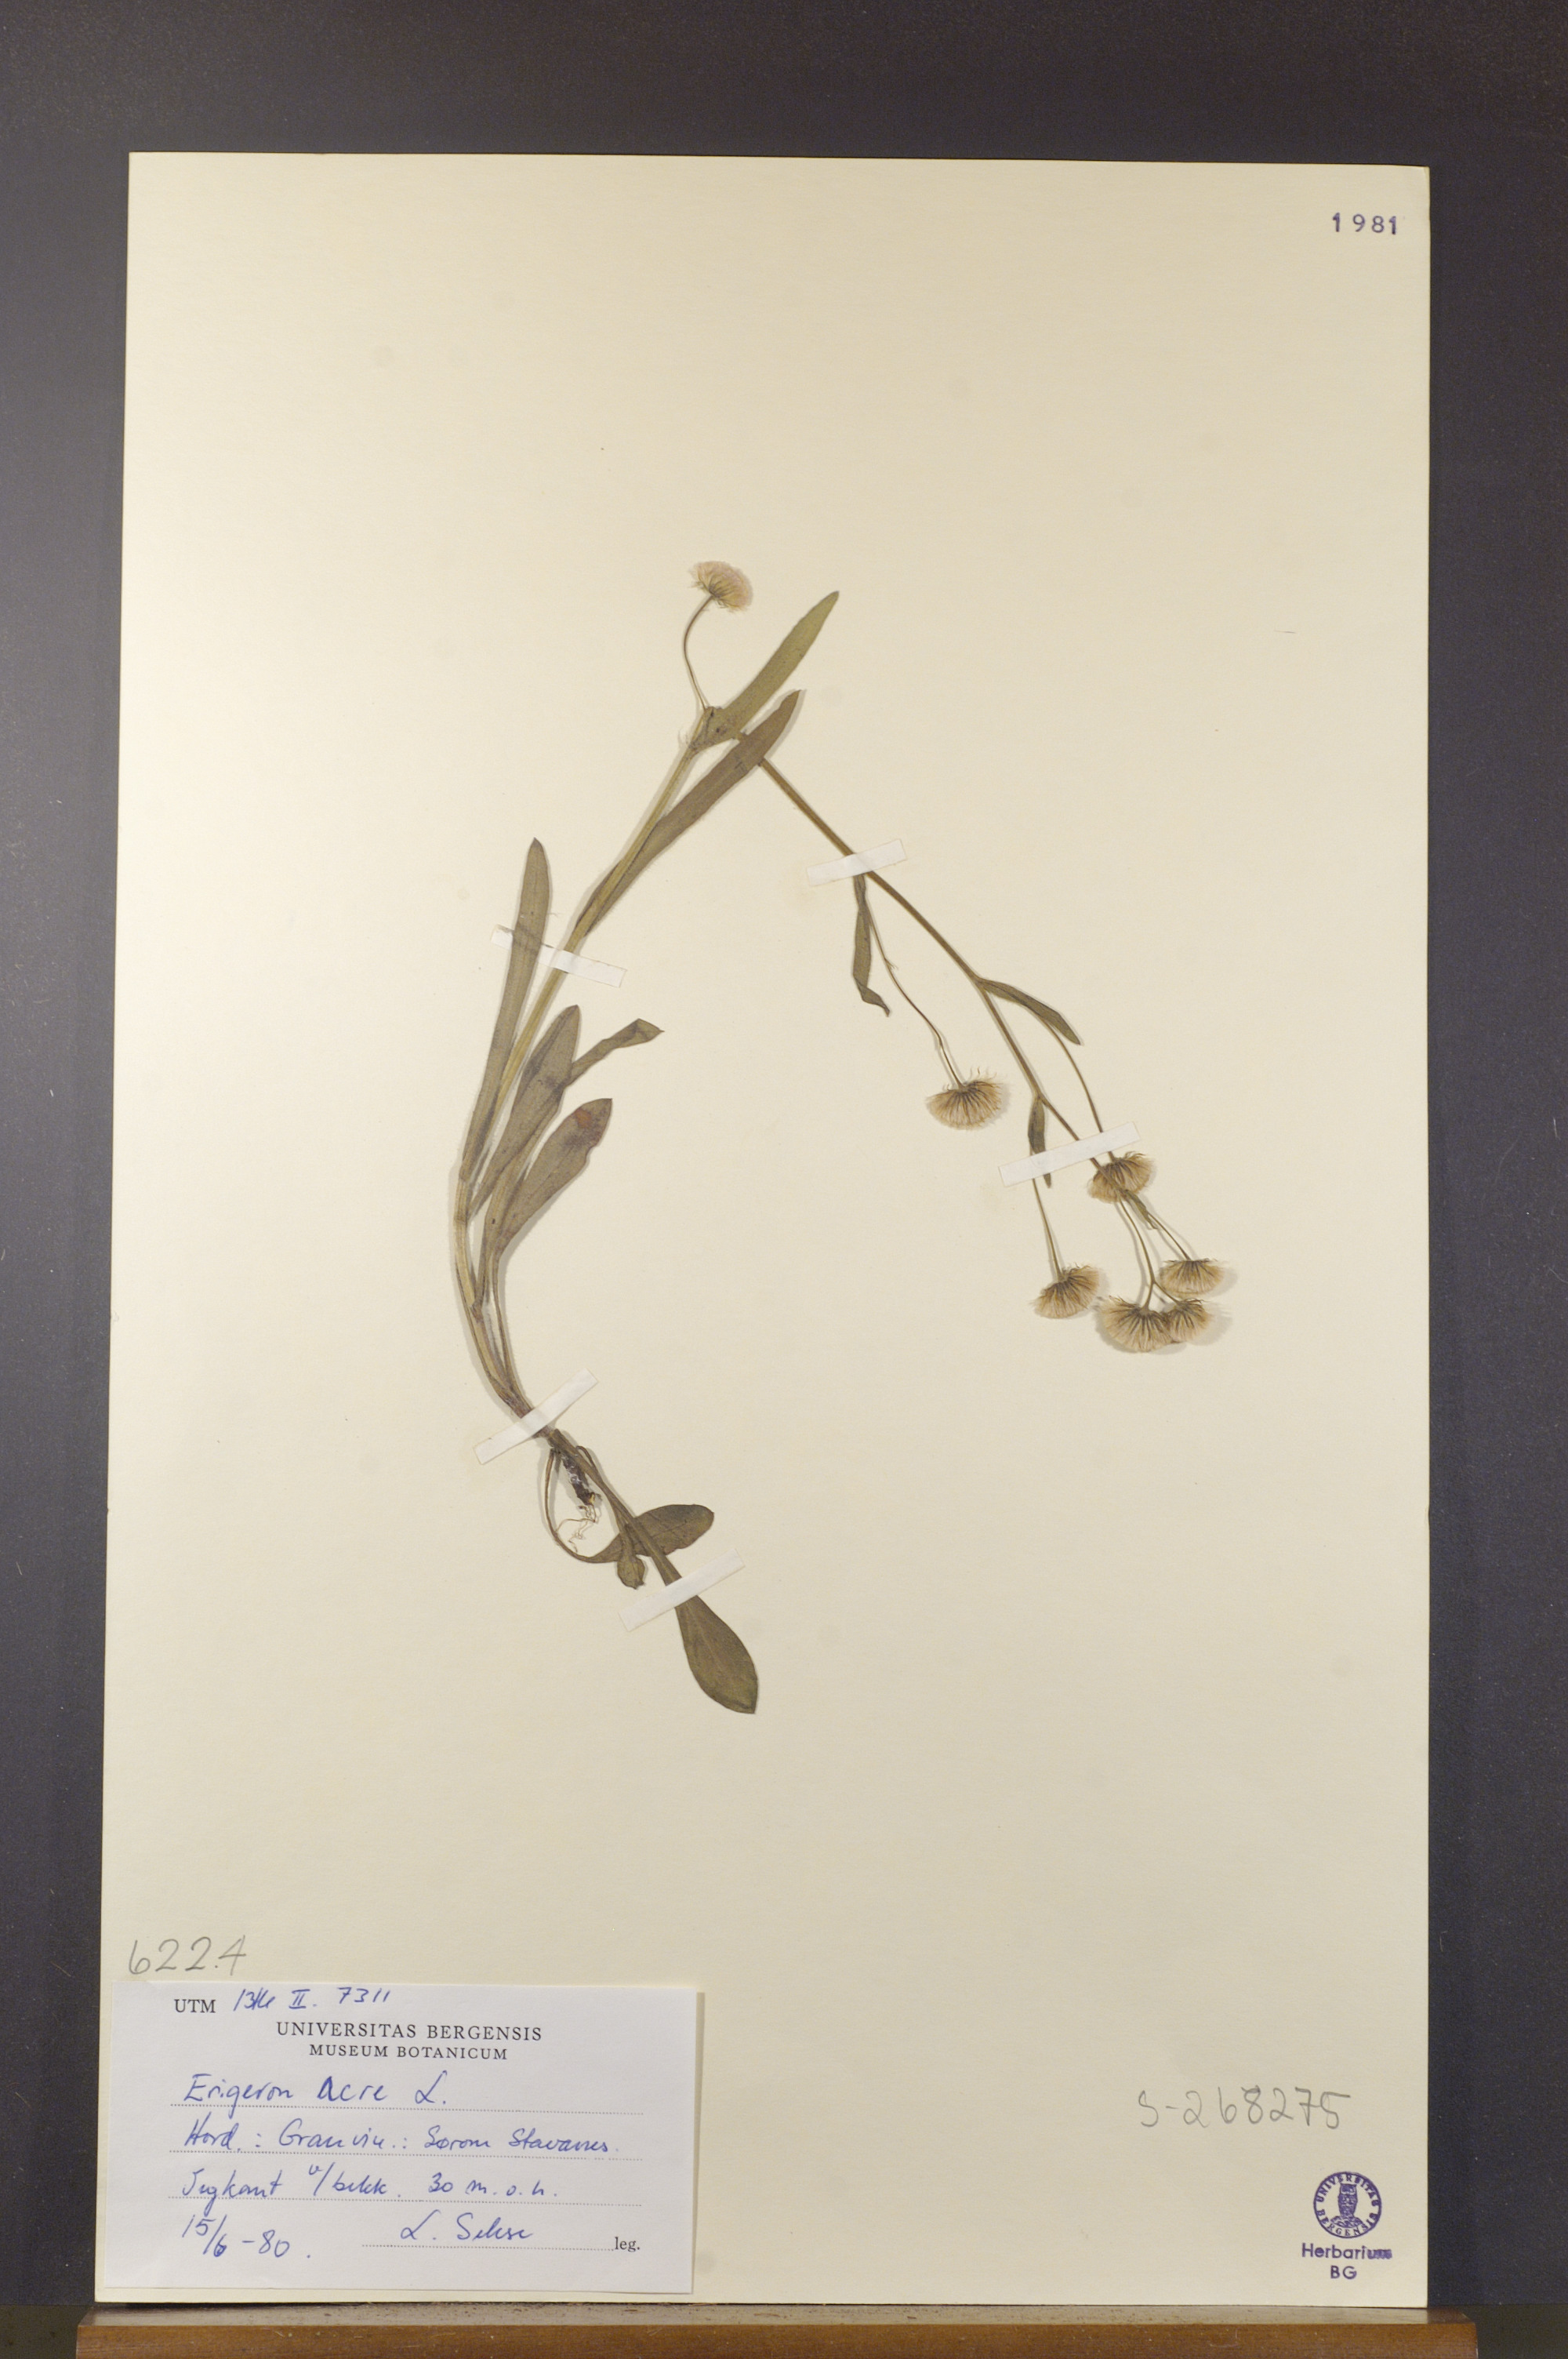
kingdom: Plantae
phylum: Tracheophyta
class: Magnoliopsida
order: Asterales
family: Asteraceae
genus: Erigeron
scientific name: Erigeron acris
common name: Blue fleabane
